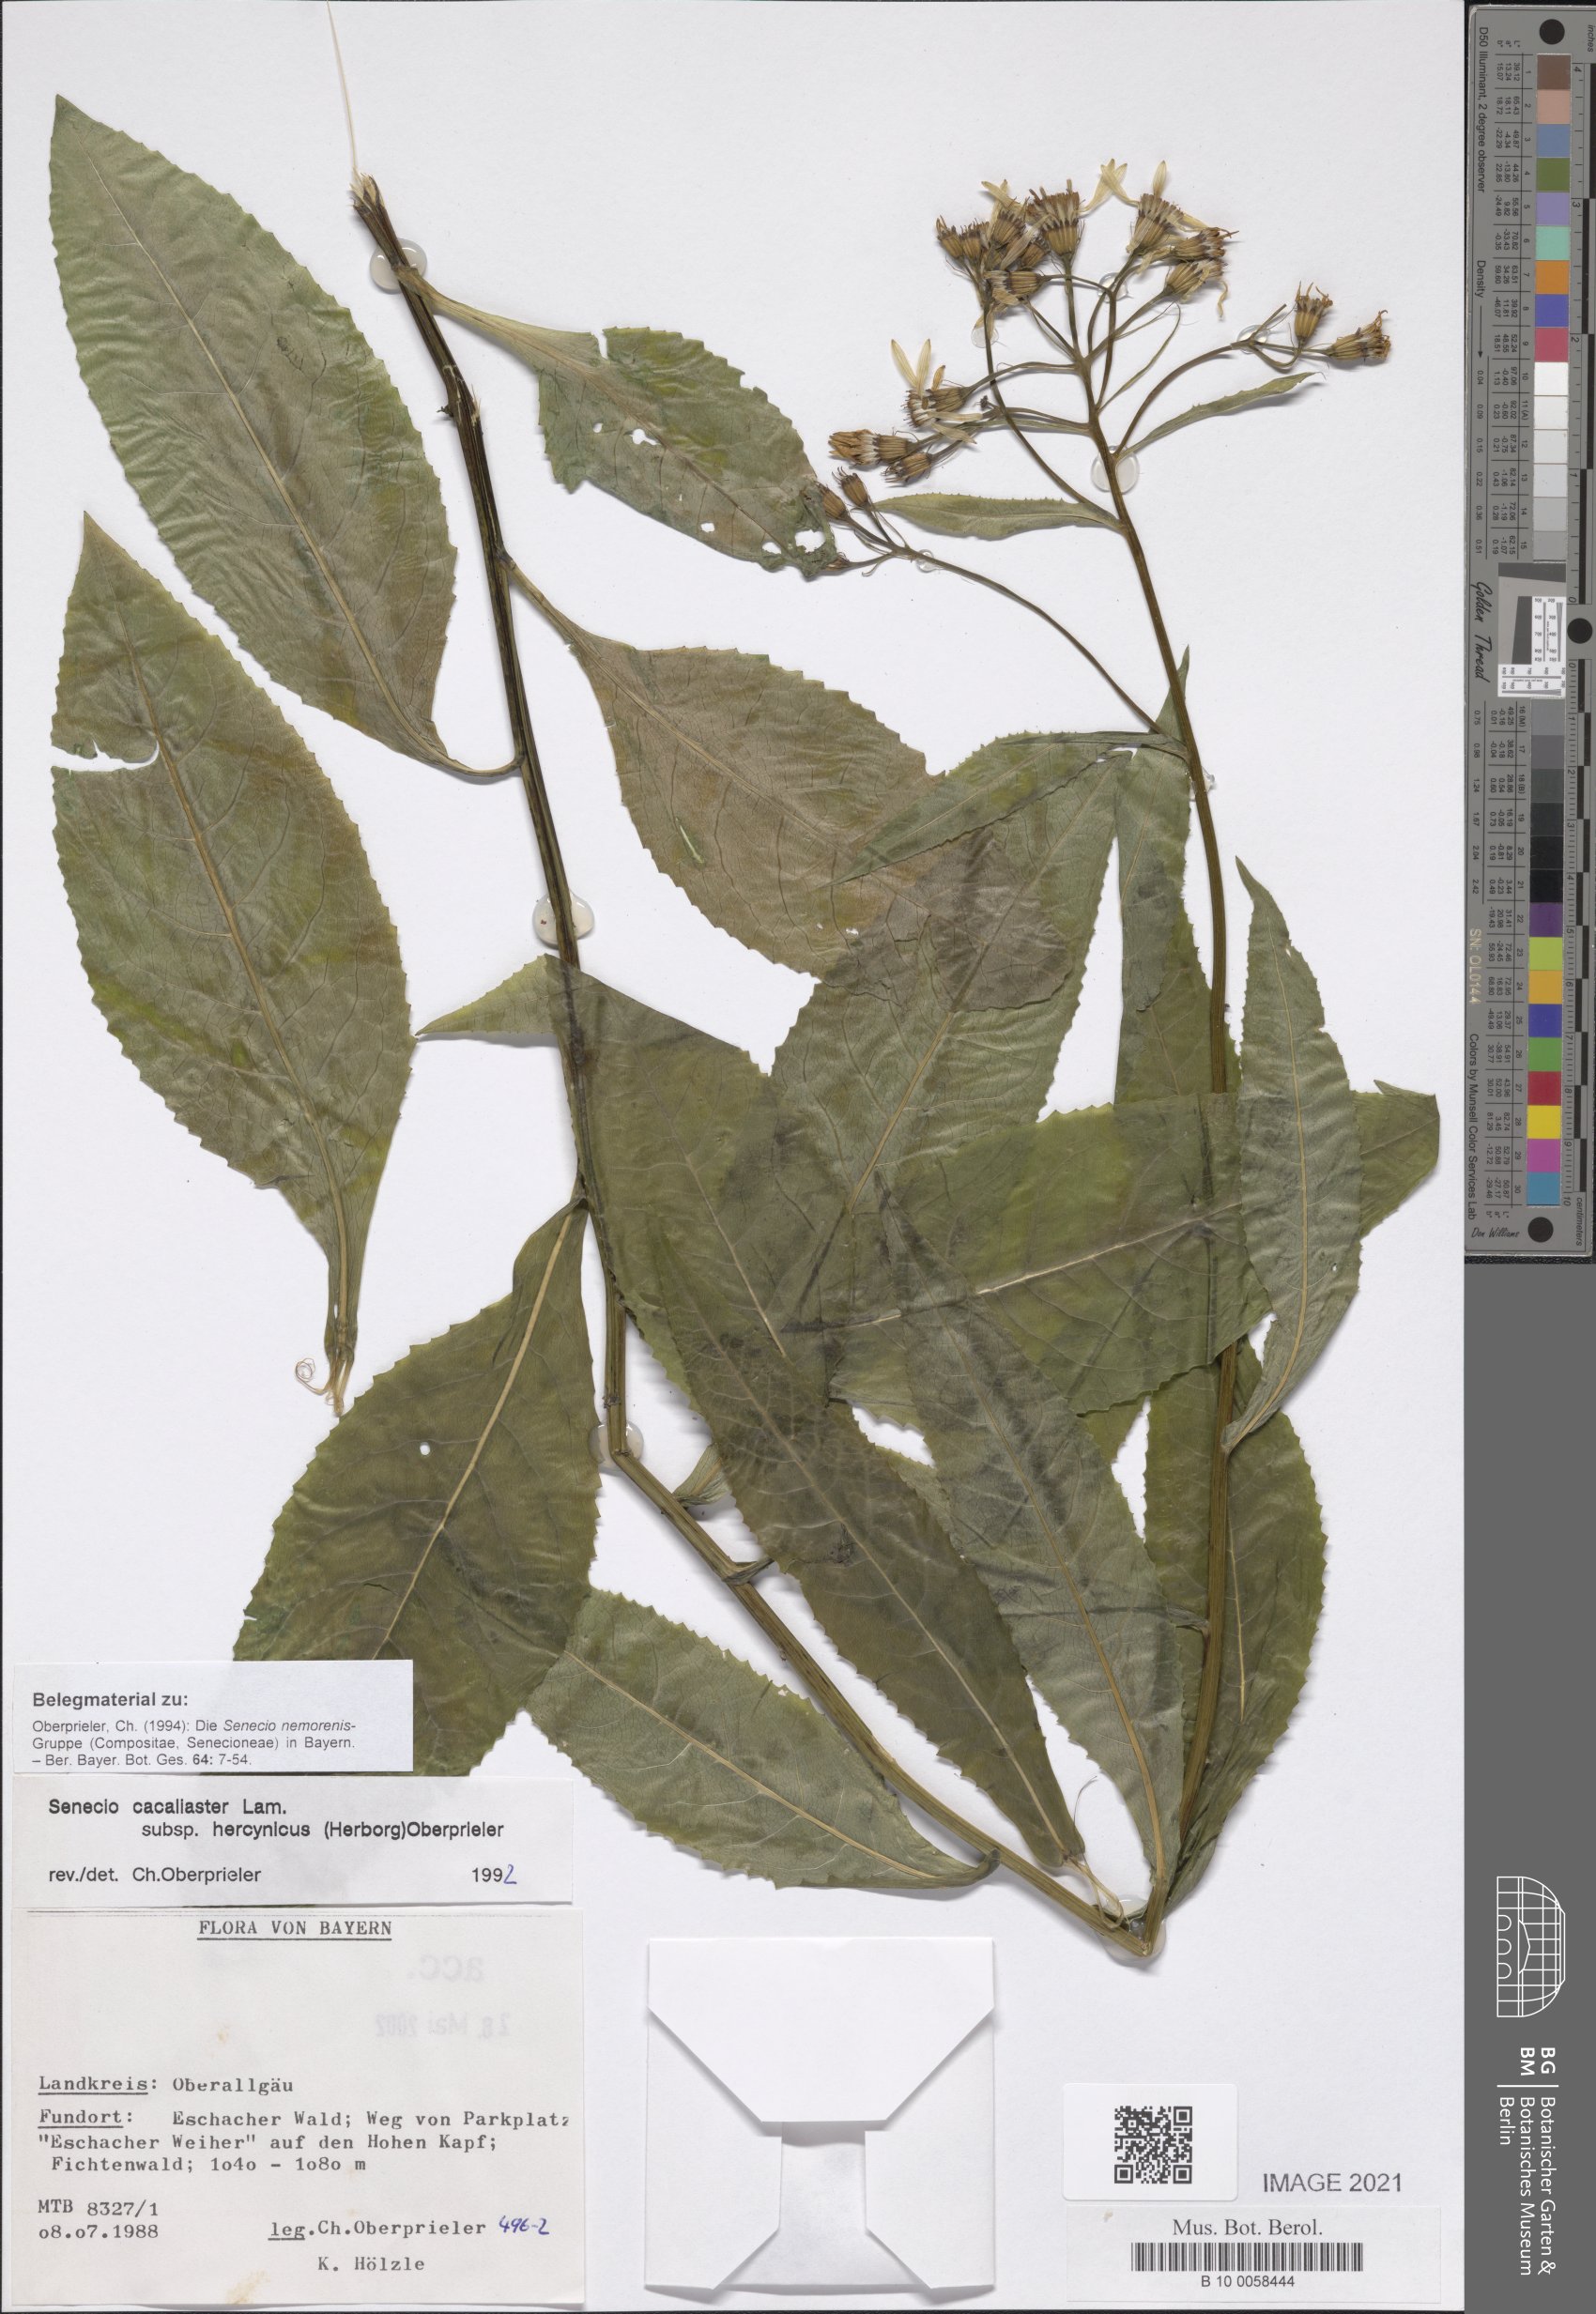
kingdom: Plantae
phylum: Tracheophyta
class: Magnoliopsida
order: Asterales
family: Asteraceae
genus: Senecio
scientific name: Senecio hercynicus
